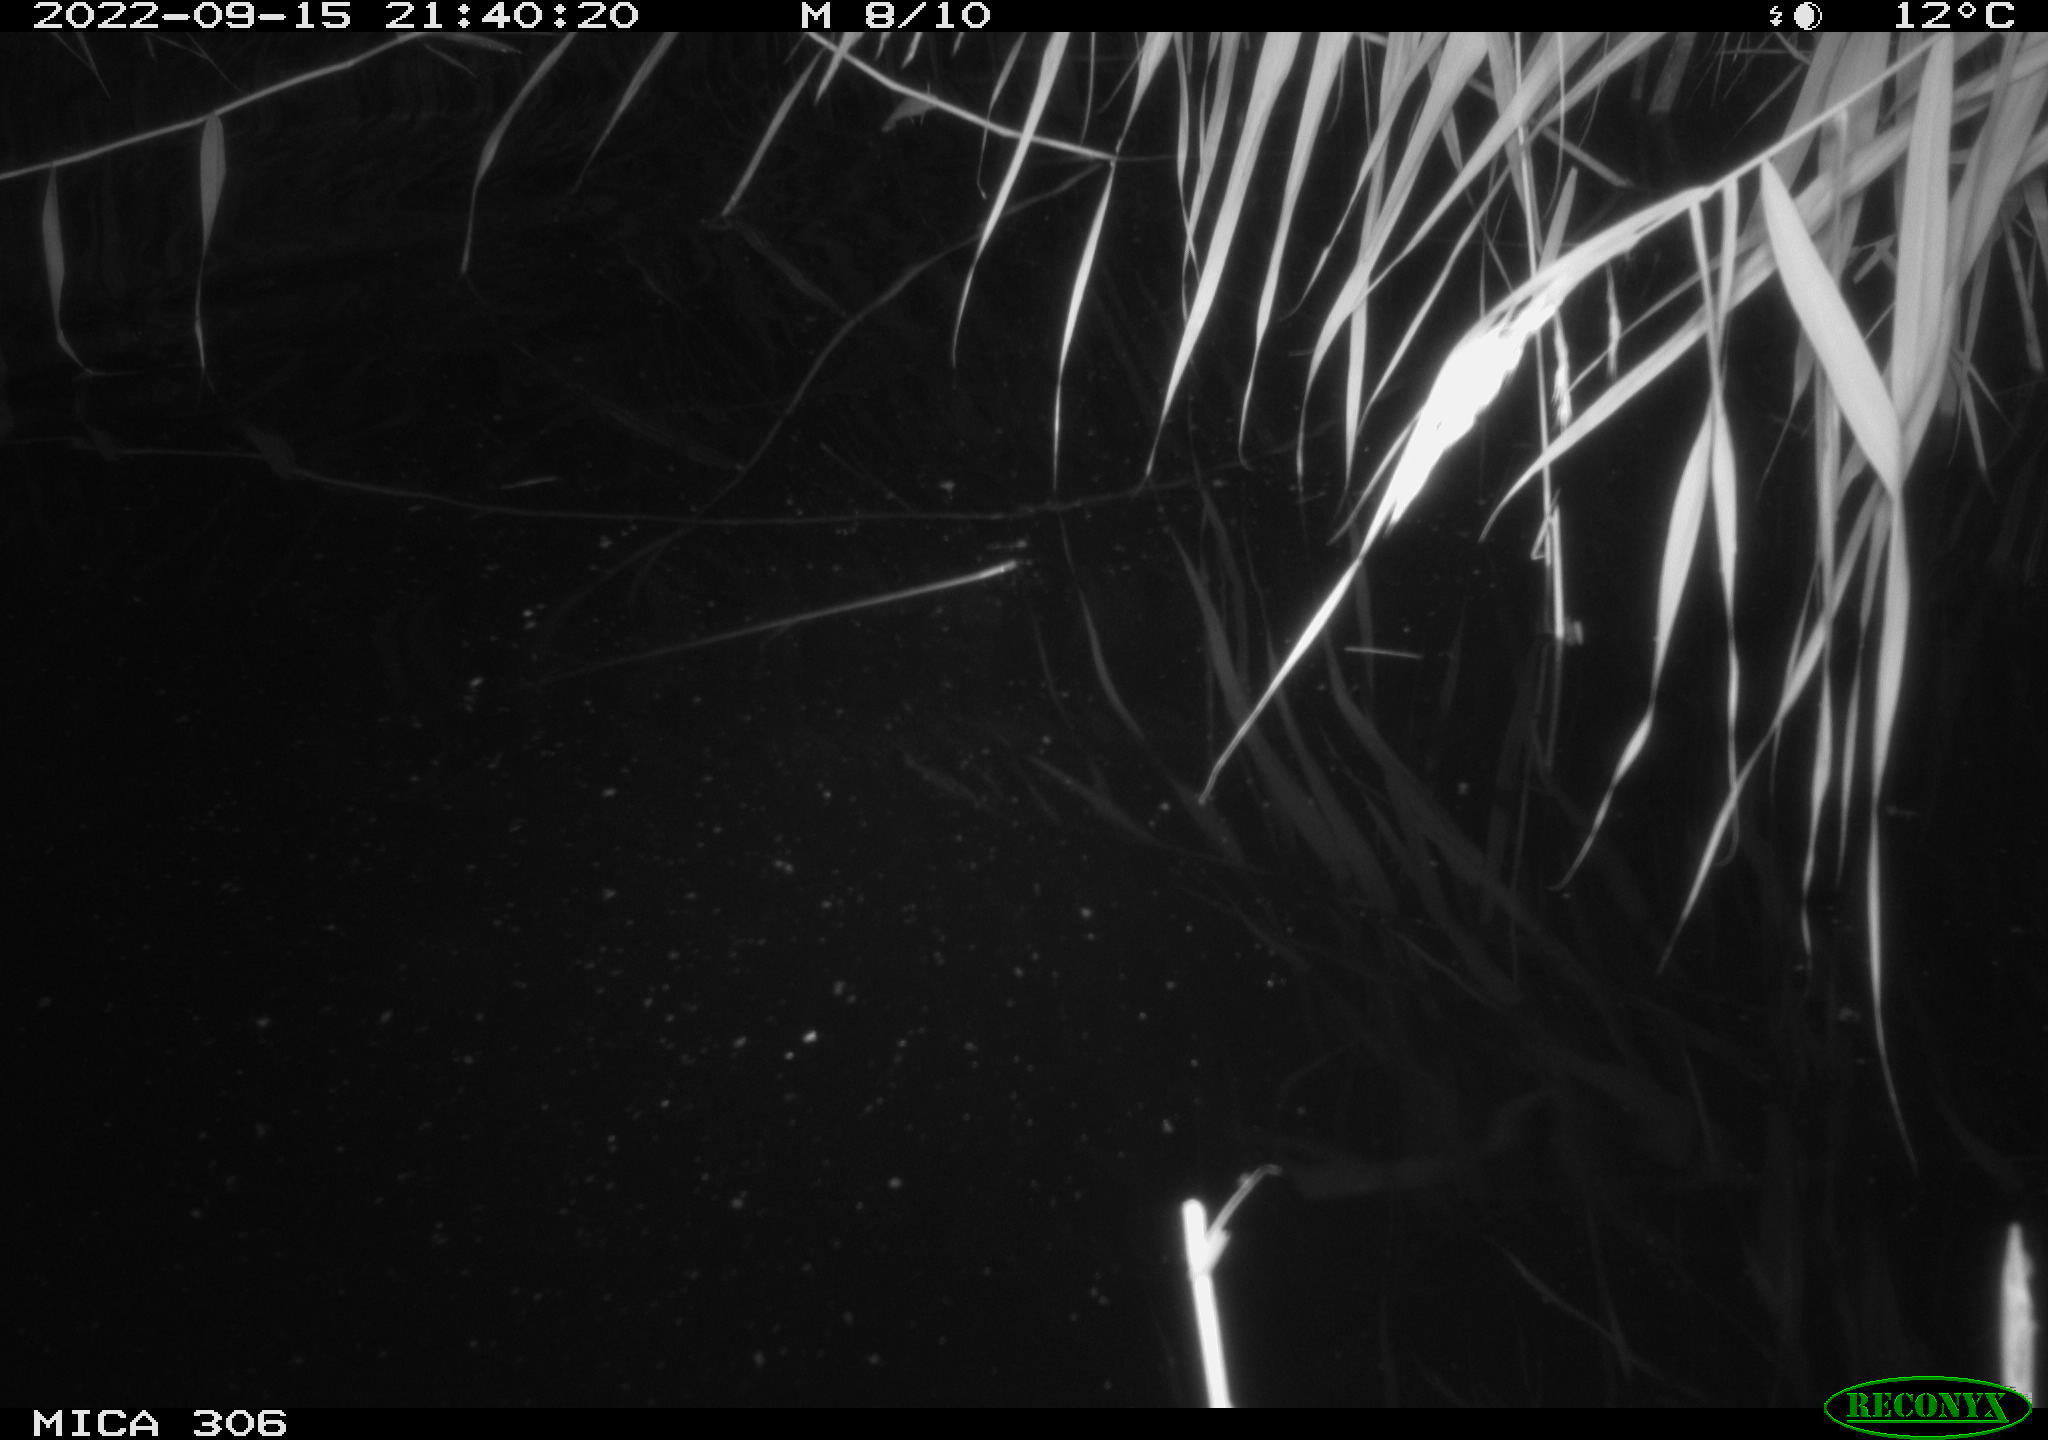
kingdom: Animalia
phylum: Chordata
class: Mammalia
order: Rodentia
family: Muridae
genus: Rattus
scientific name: Rattus norvegicus
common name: Brown rat
